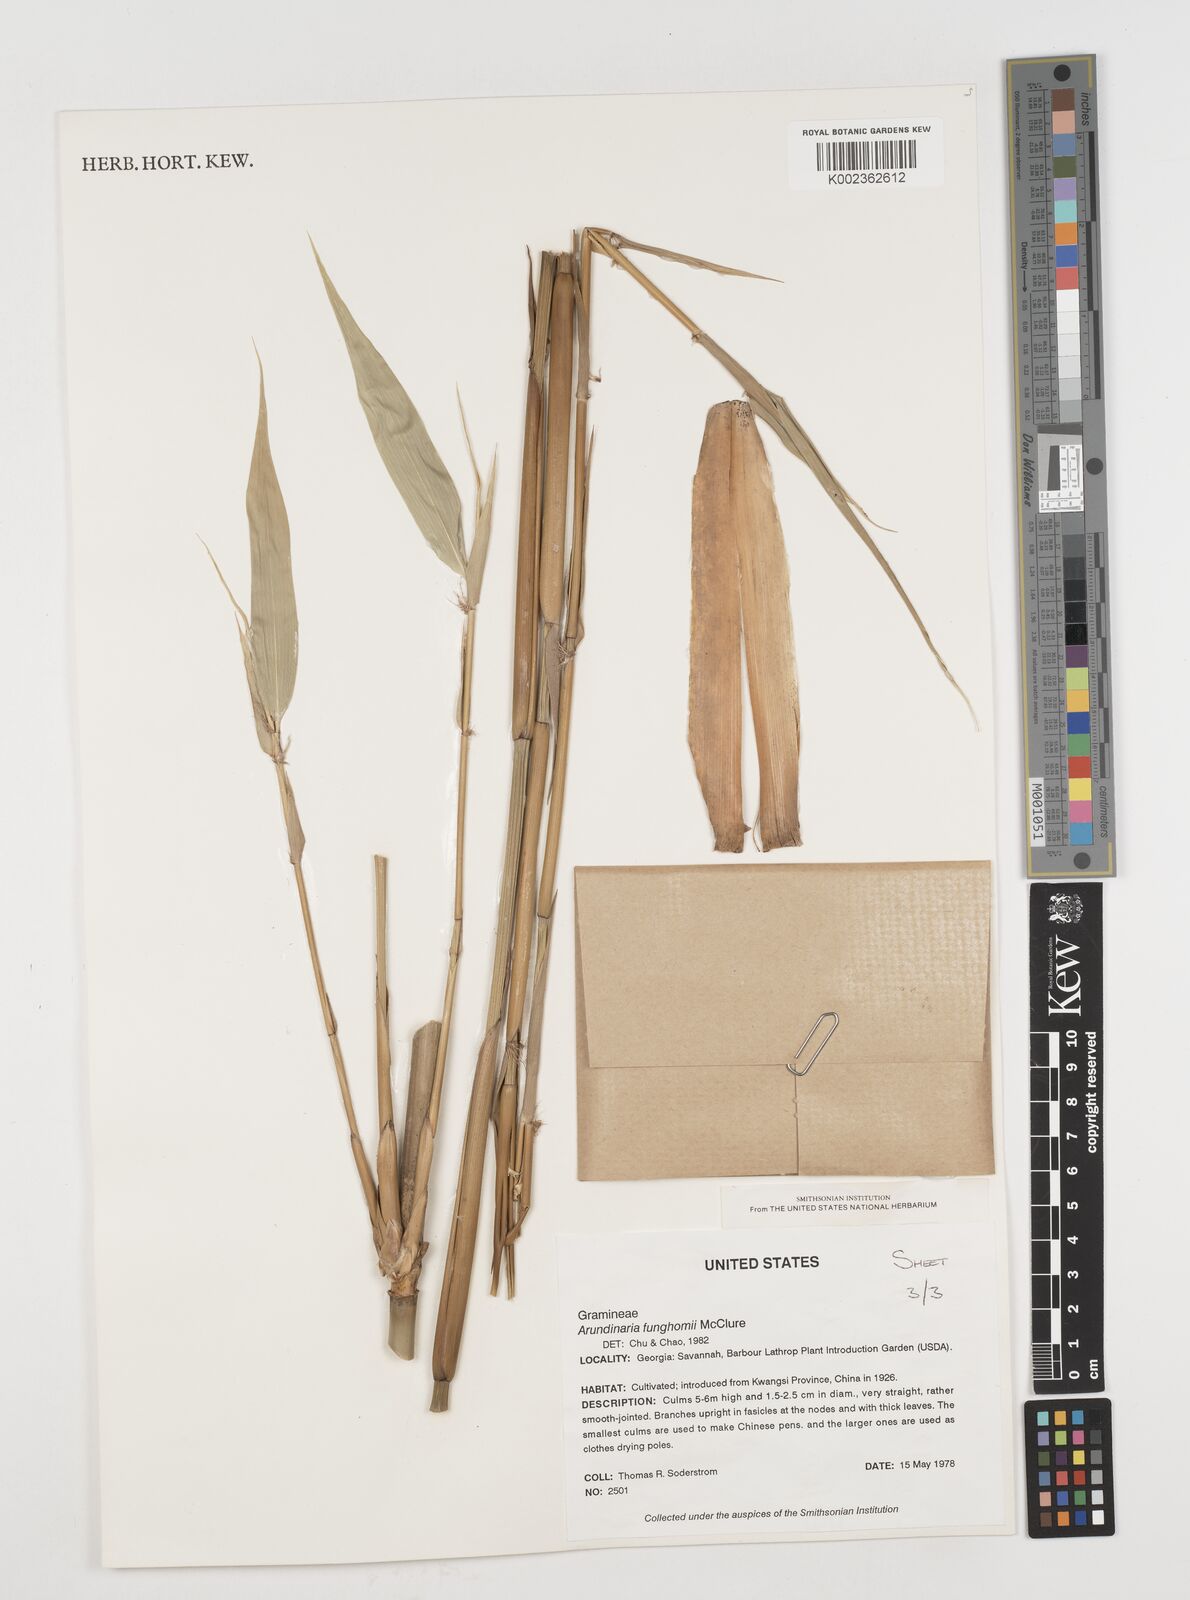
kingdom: Plantae
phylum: Tracheophyta
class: Liliopsida
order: Poales
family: Poaceae
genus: Pseudosasa
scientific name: Pseudosasa
